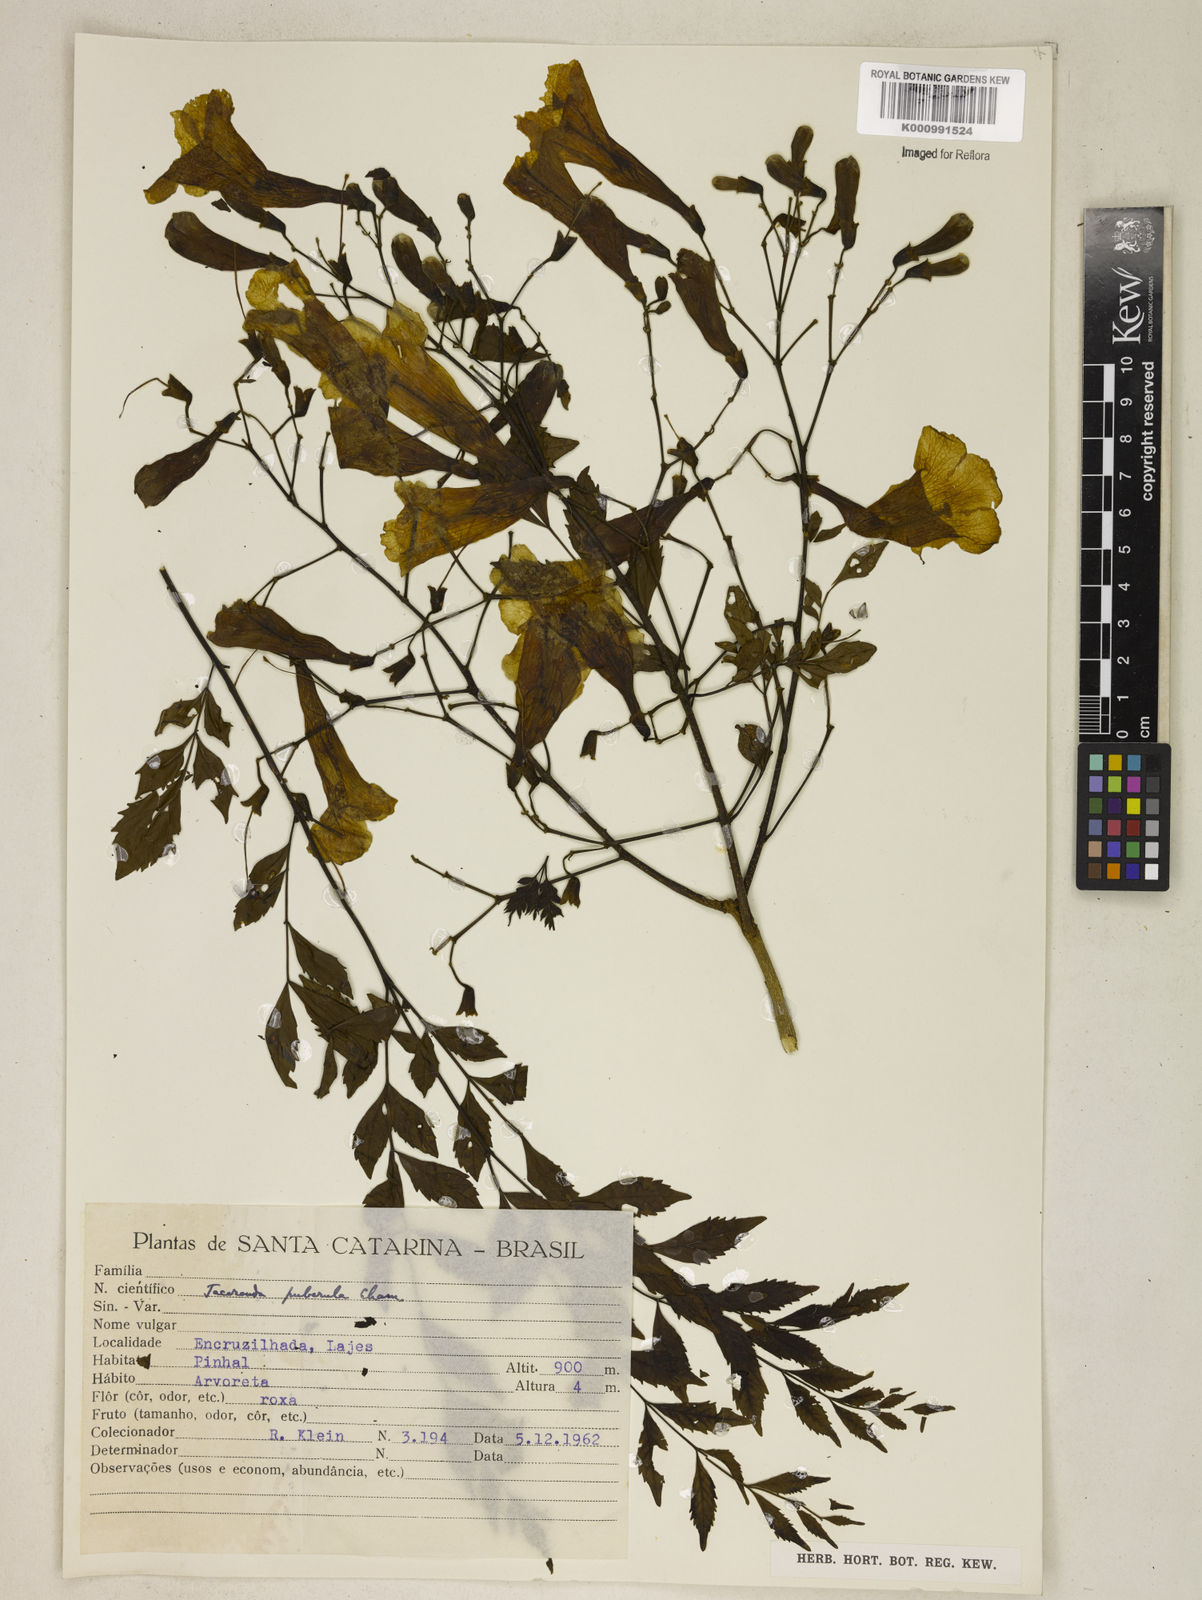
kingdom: Plantae
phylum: Tracheophyta
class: Magnoliopsida
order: Lamiales
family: Bignoniaceae
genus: Jacaranda
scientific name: Jacaranda puberula
